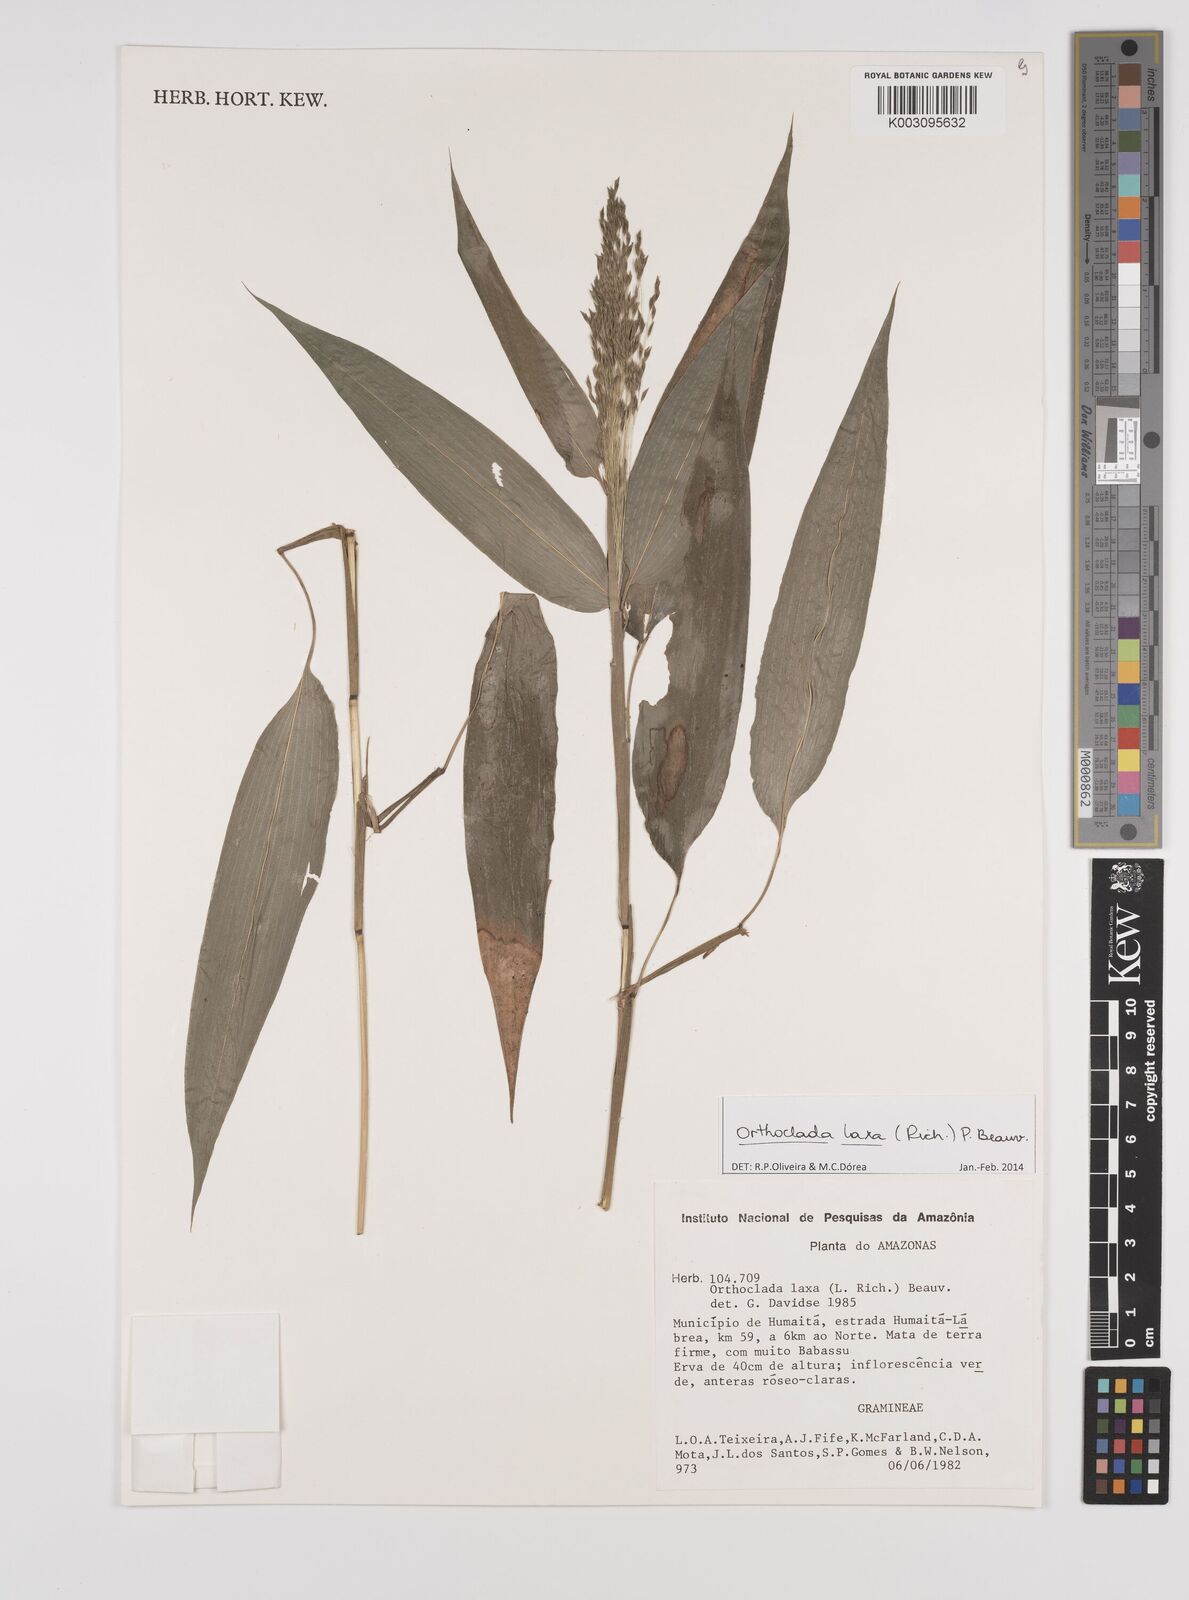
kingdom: Plantae
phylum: Tracheophyta
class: Liliopsida
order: Poales
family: Poaceae
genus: Orthoclada
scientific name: Orthoclada laxa
